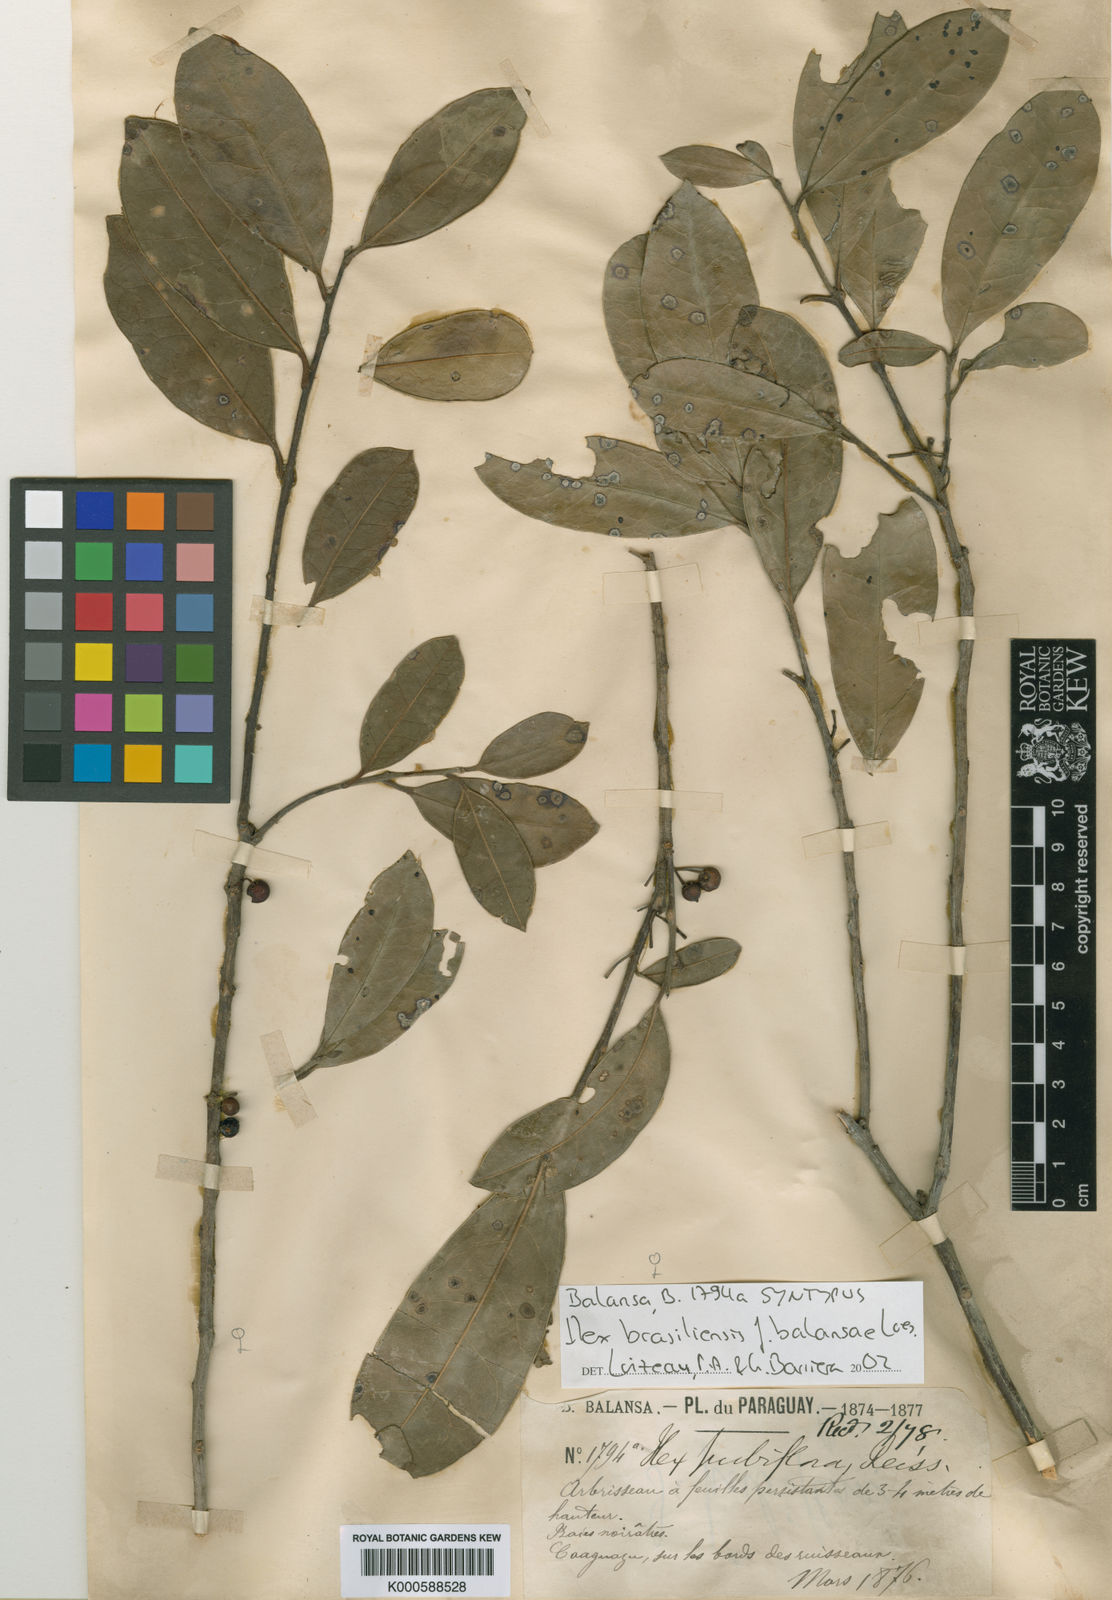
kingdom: Plantae
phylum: Tracheophyta
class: Magnoliopsida
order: Aquifoliales
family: Aquifoliaceae
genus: Ilex
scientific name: Ilex brasiliensis
